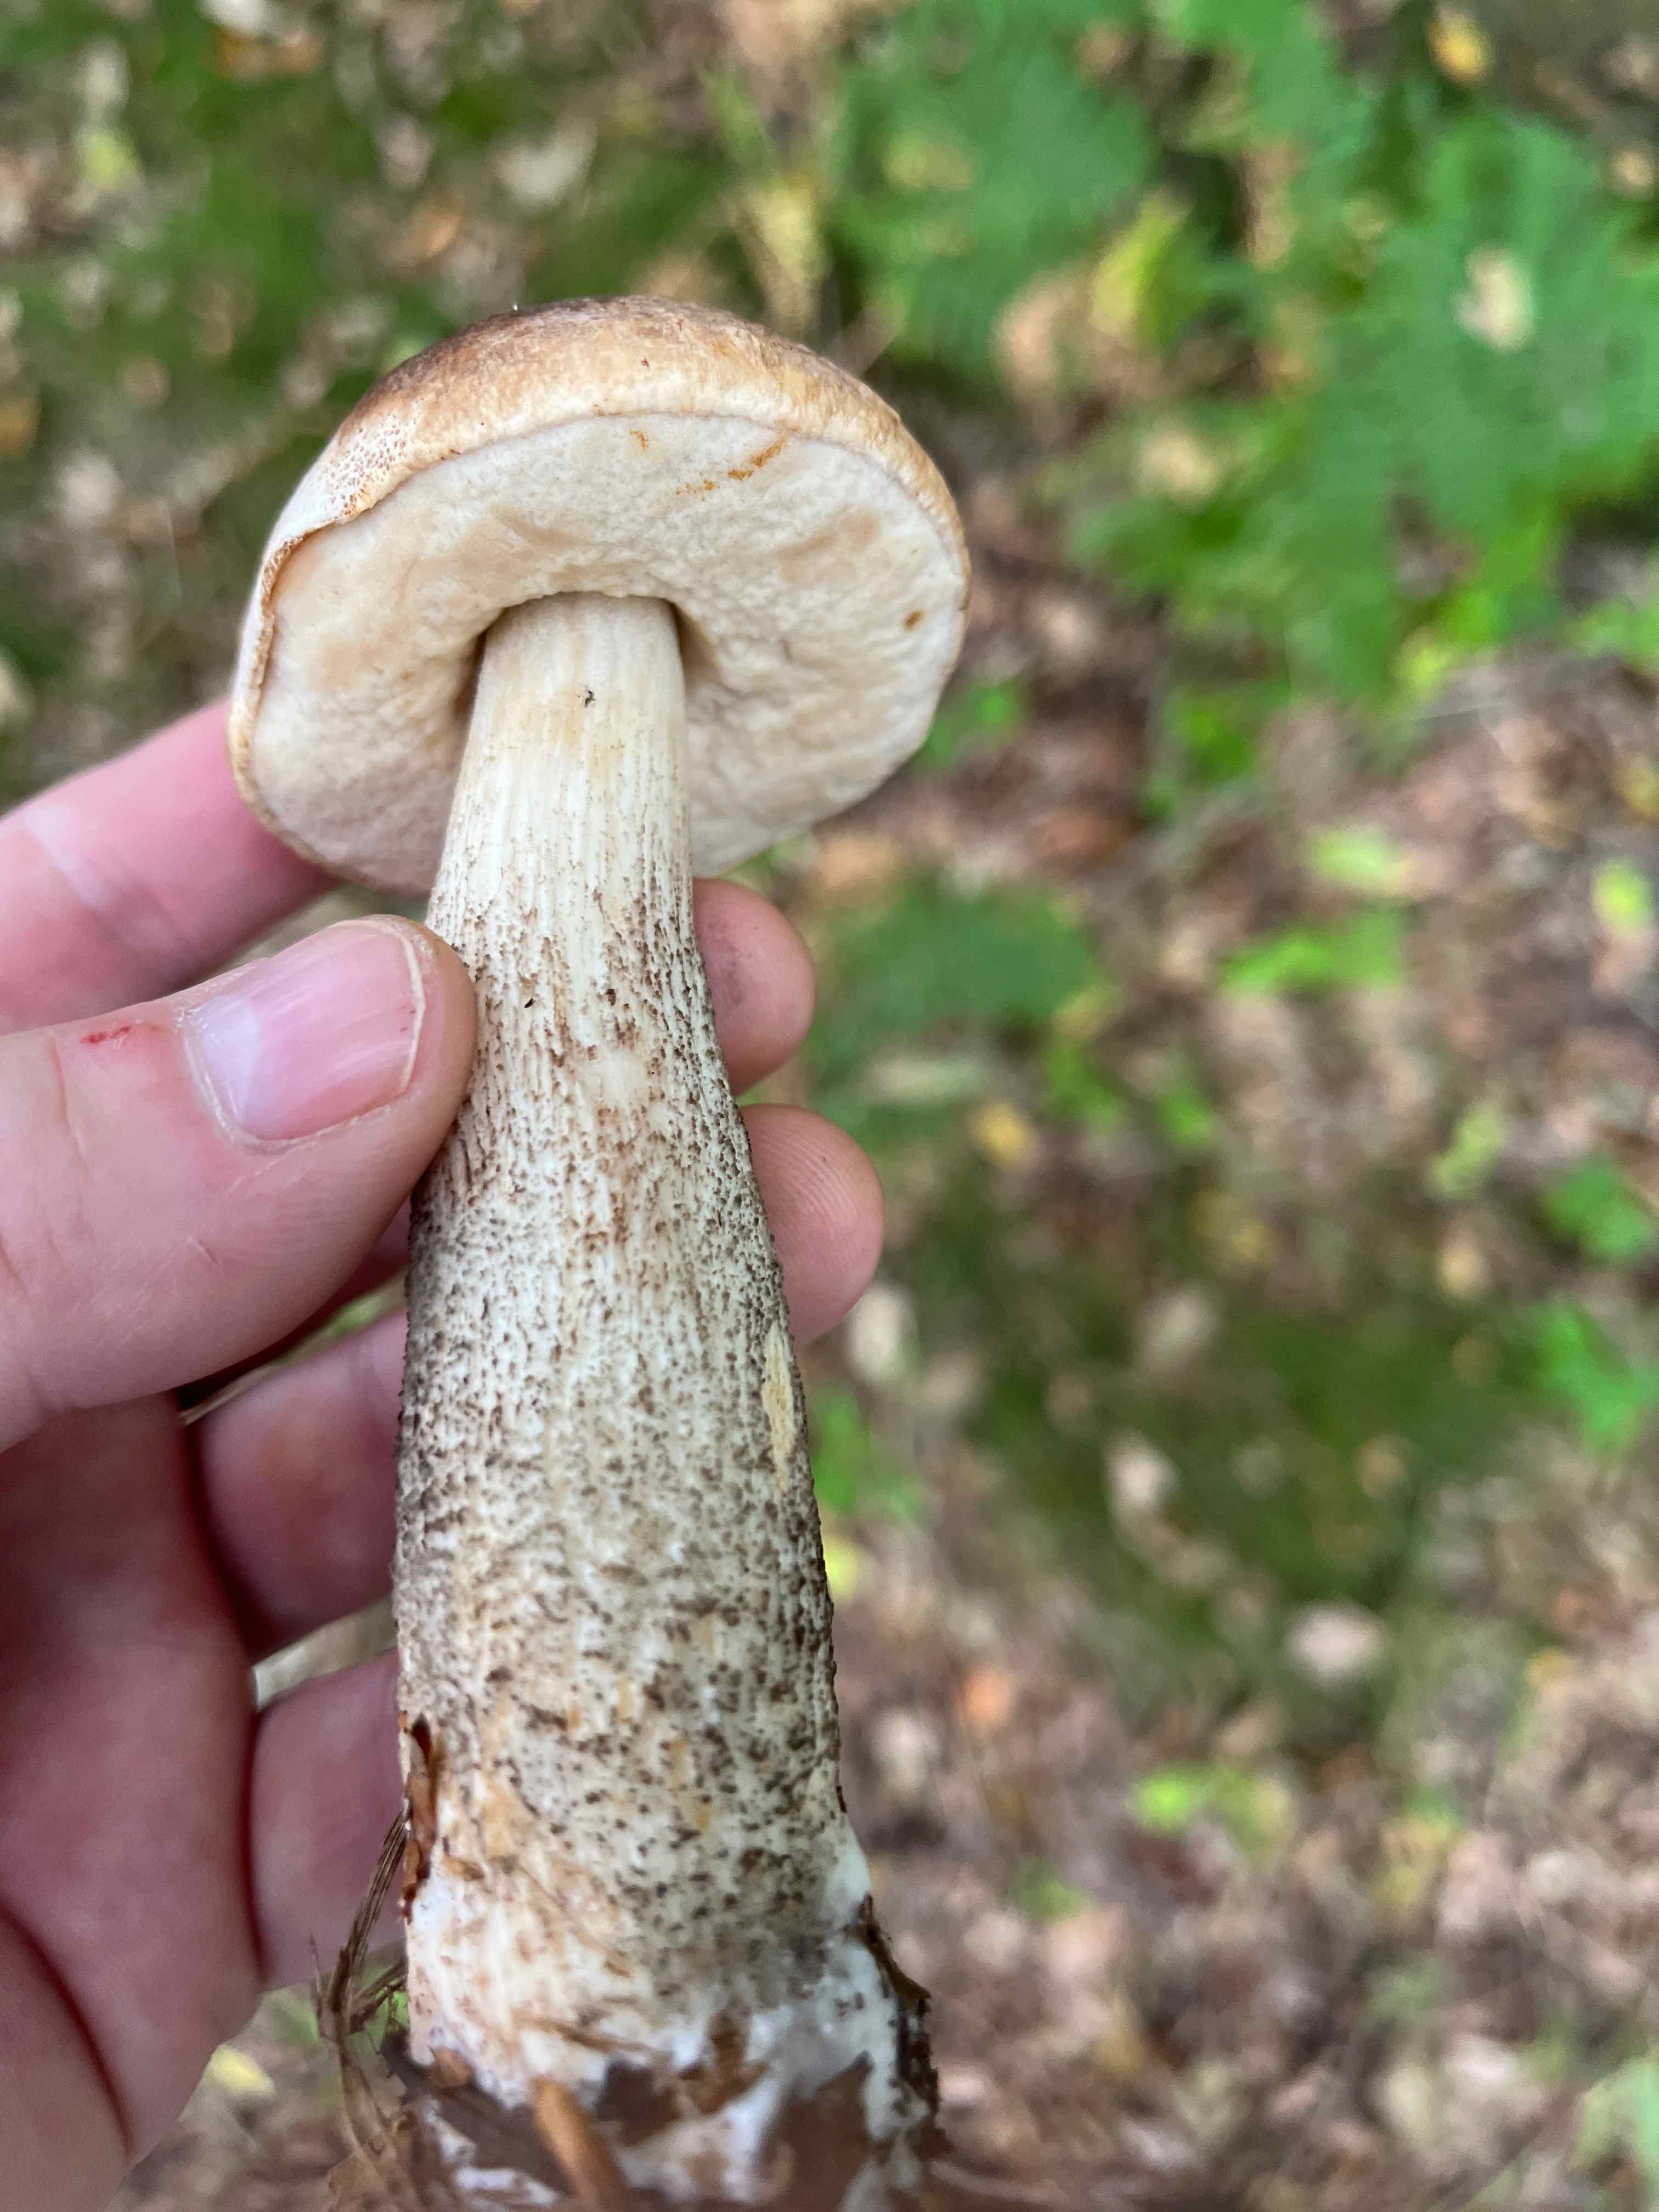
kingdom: Fungi
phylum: Basidiomycota
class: Agaricomycetes
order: Boletales
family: Boletaceae
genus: Leccinum
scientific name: Leccinum scabrum
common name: brun skælrørhat
